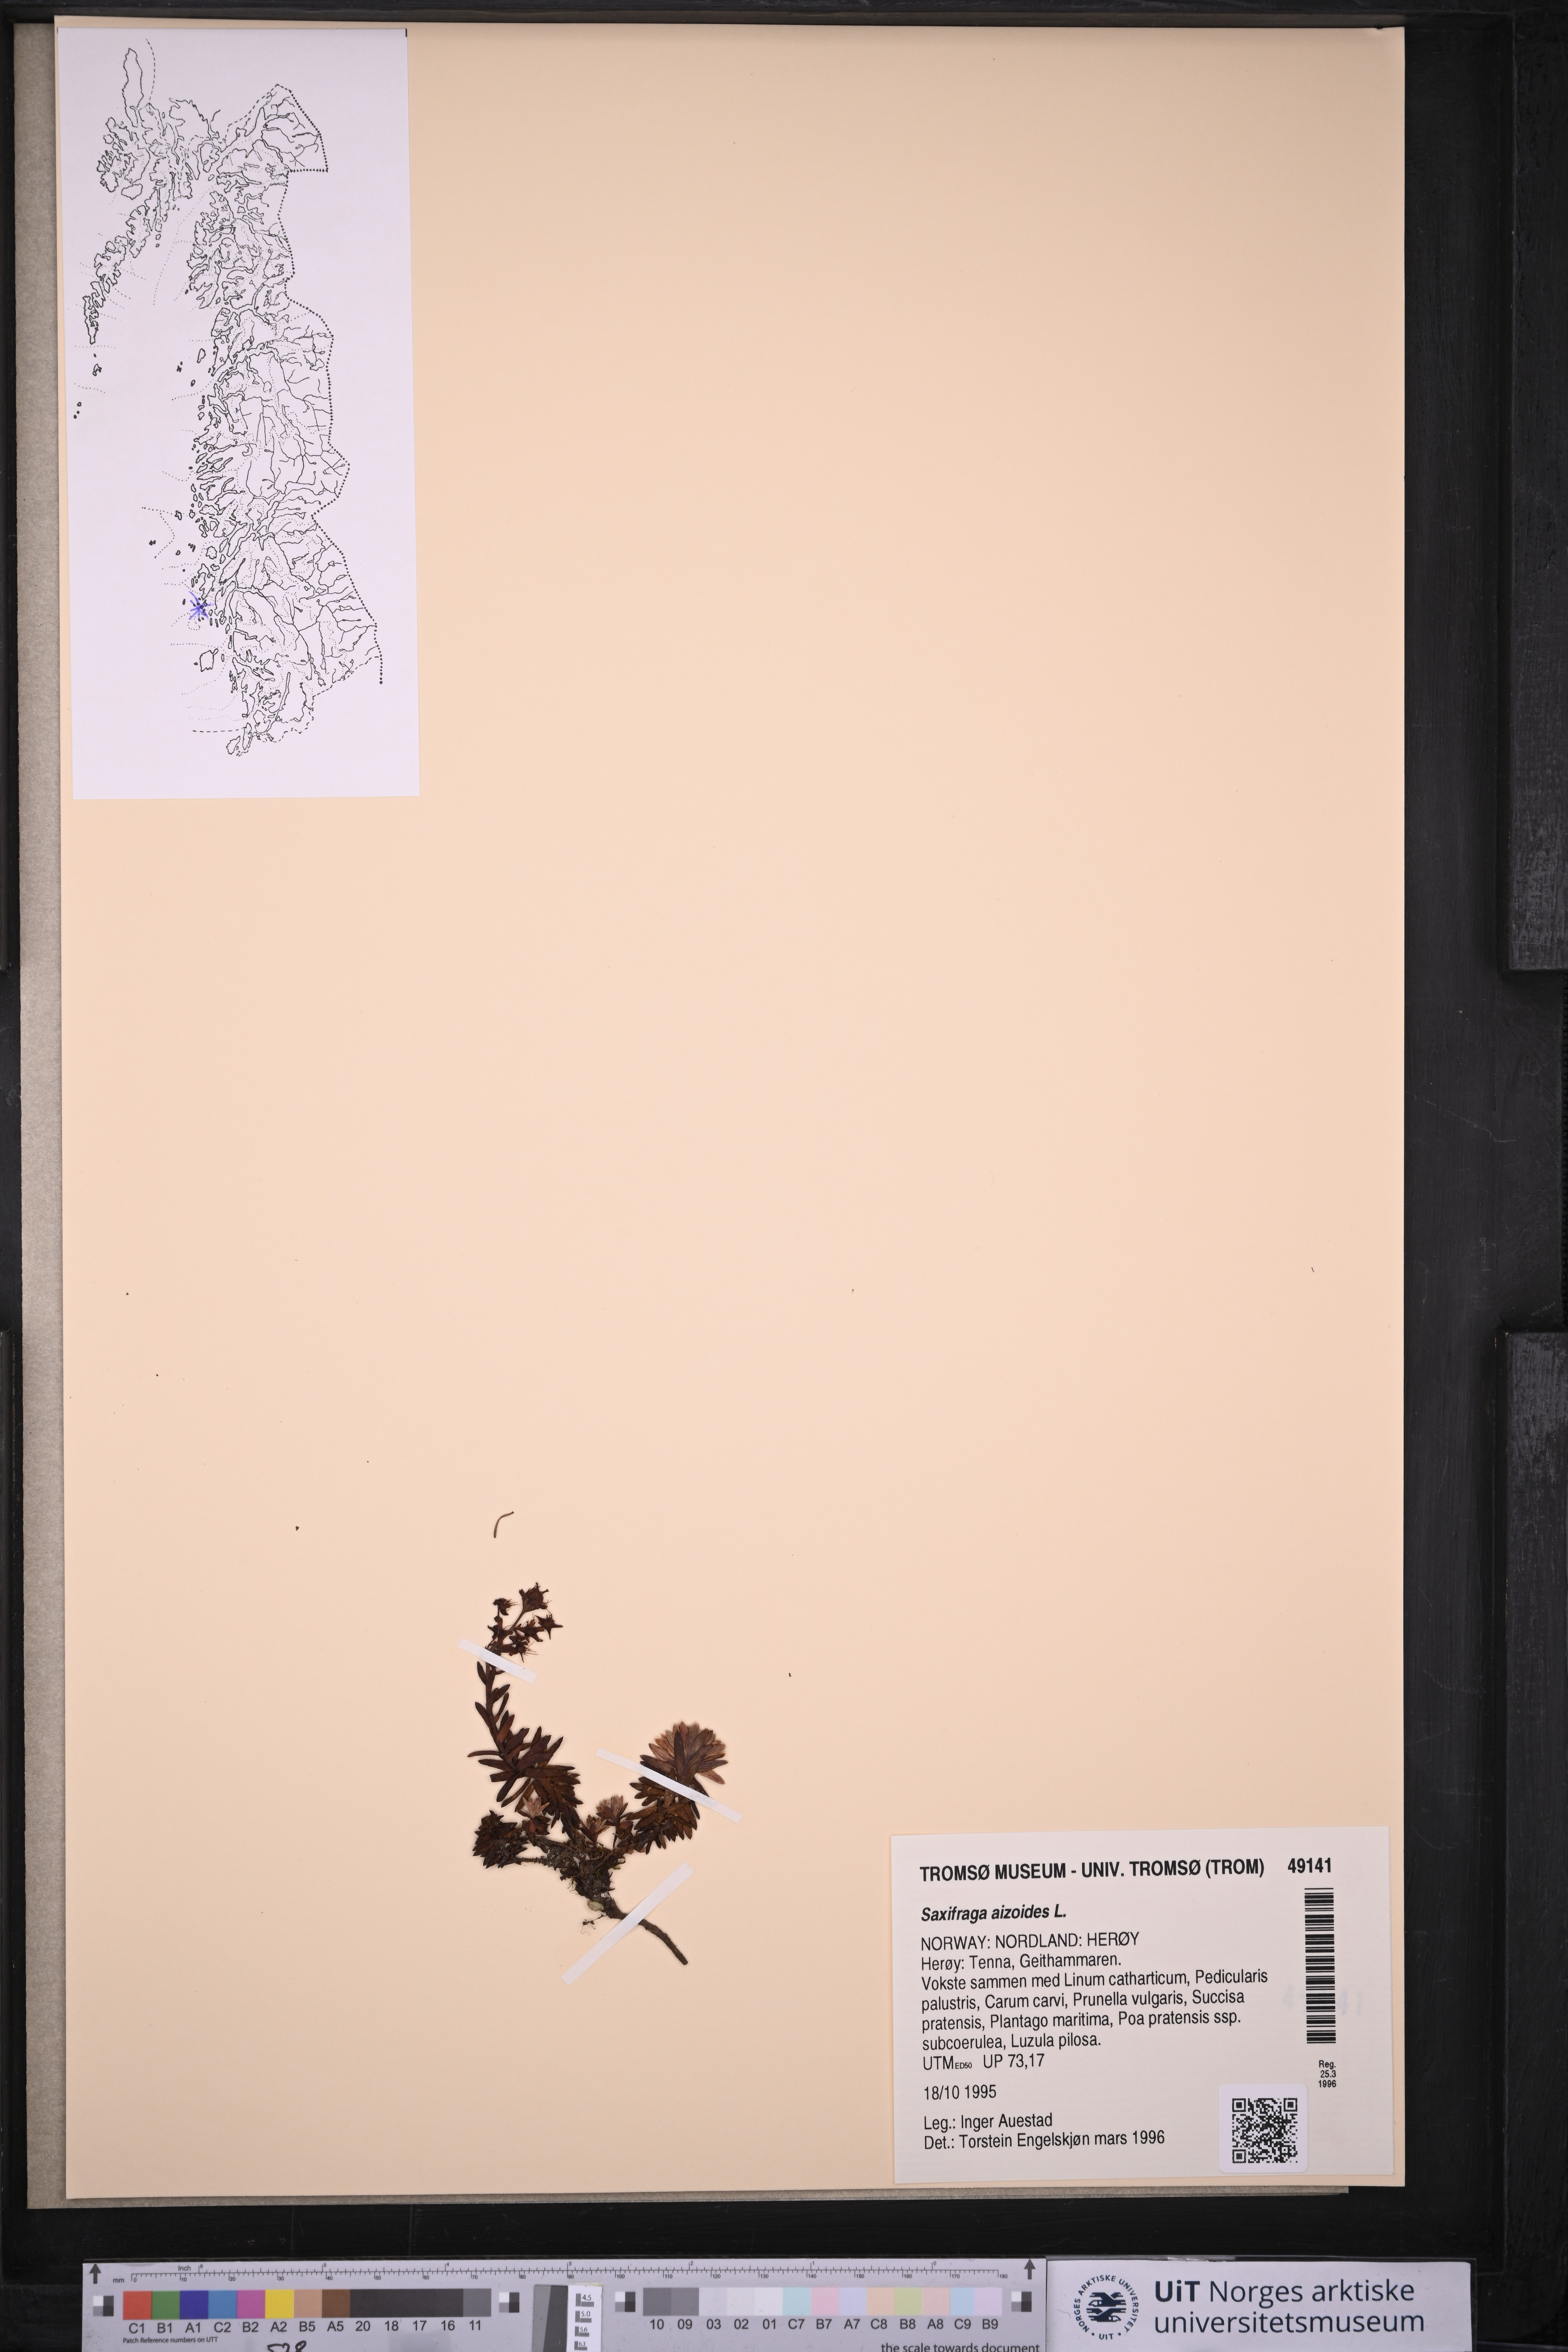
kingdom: Plantae
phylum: Tracheophyta
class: Magnoliopsida
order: Saxifragales
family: Saxifragaceae
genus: Saxifraga
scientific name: Saxifraga aizoides
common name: Yellow mountain saxifrage
